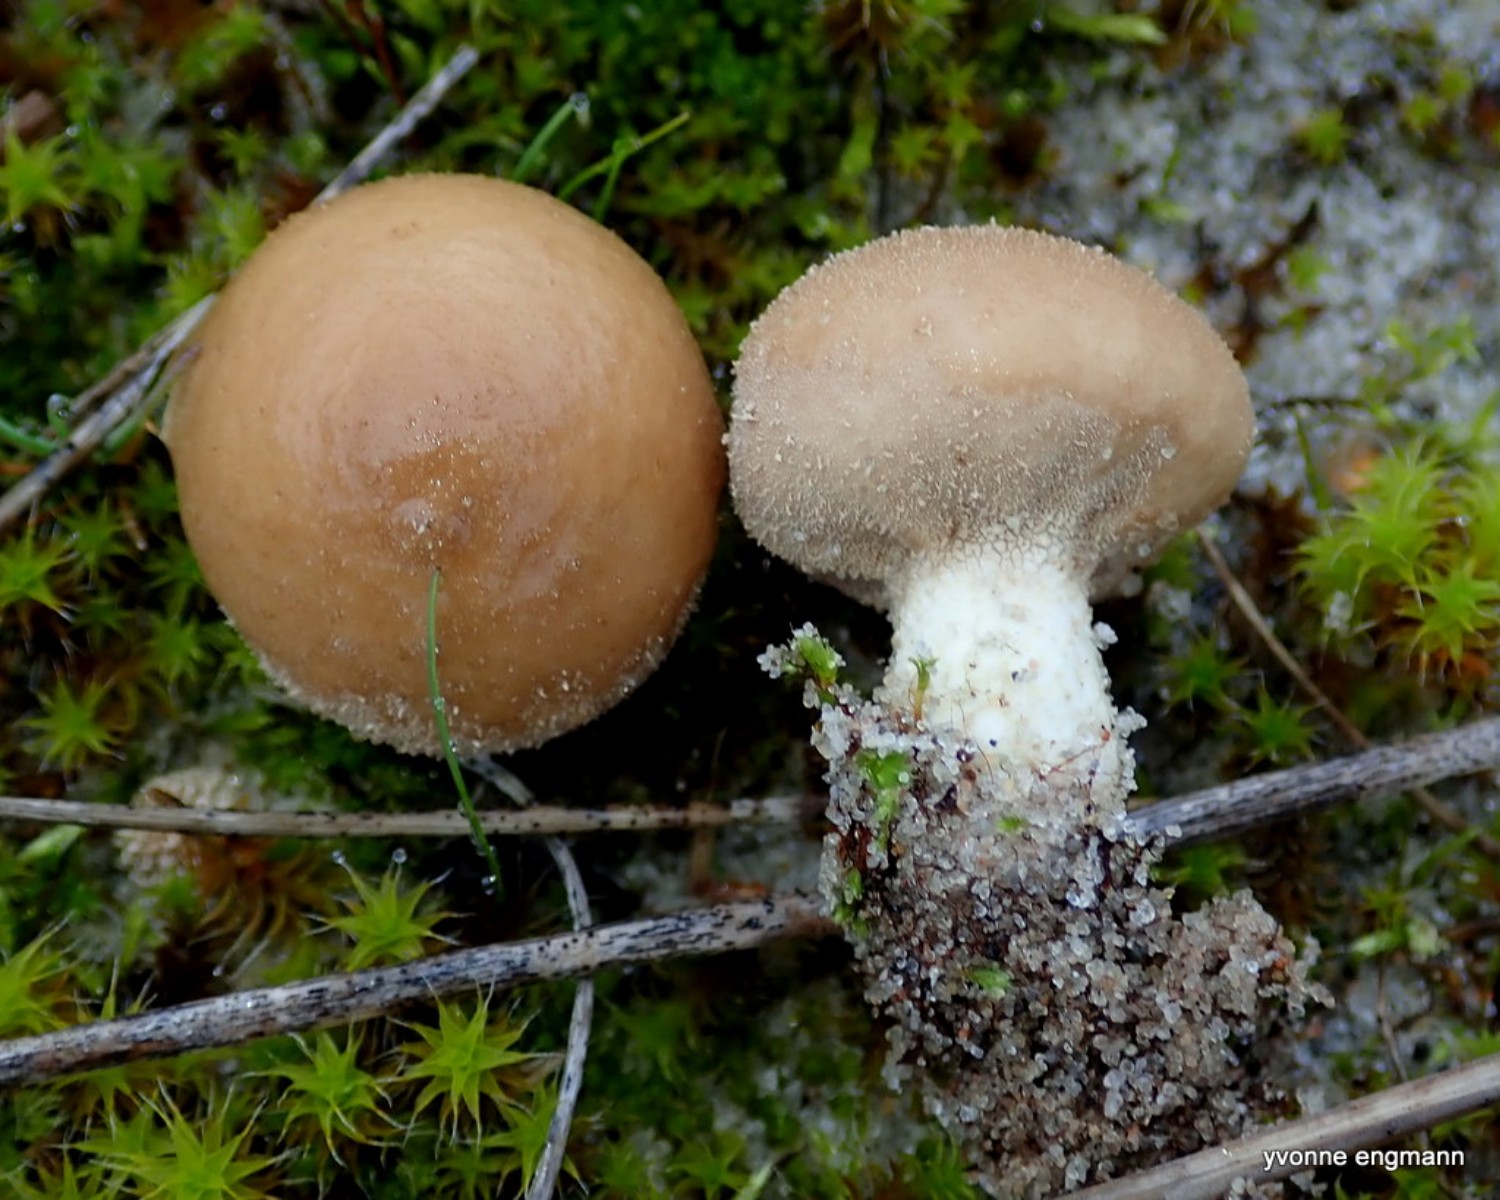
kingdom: Fungi
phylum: Basidiomycota
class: Agaricomycetes
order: Agaricales
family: Lycoperdaceae
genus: Lycoperdon
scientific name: Lycoperdon lividum
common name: mark-støvbold
